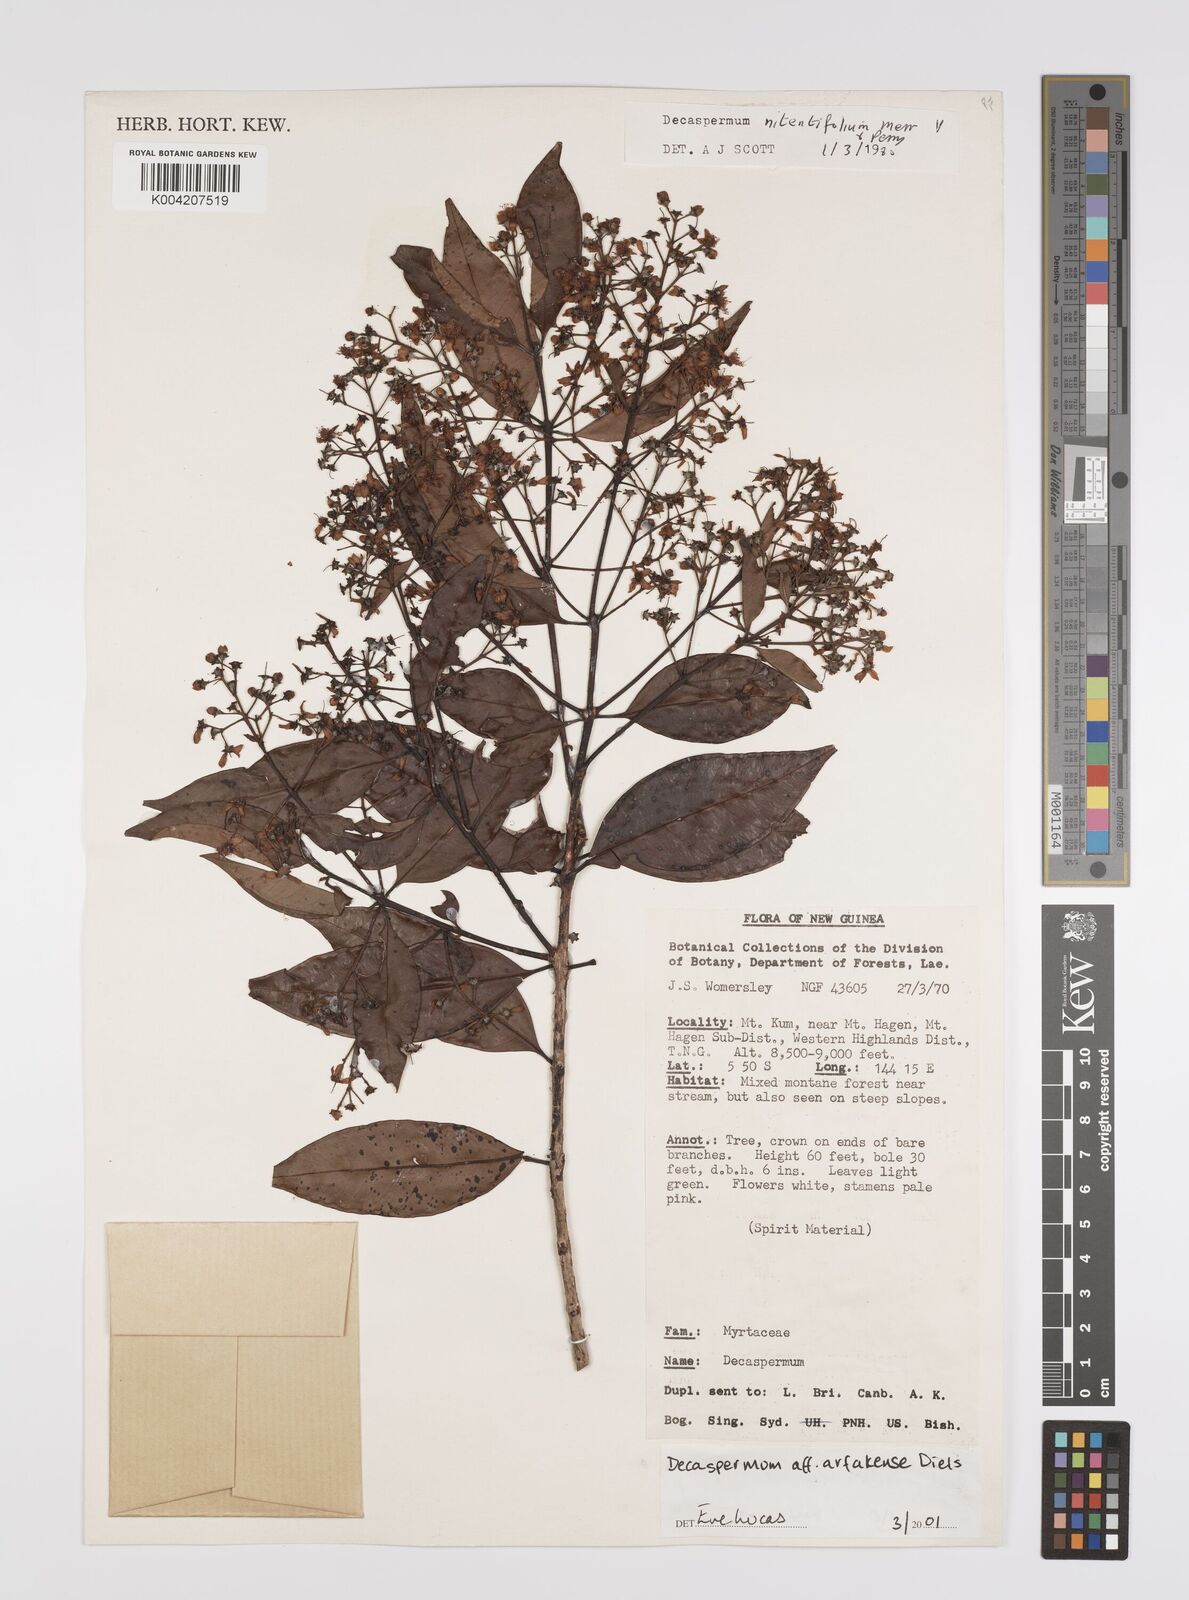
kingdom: Plantae
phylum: Tracheophyta
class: Magnoliopsida
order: Myrtales
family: Myrtaceae
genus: Decaspermum
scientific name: Decaspermum arfakense
